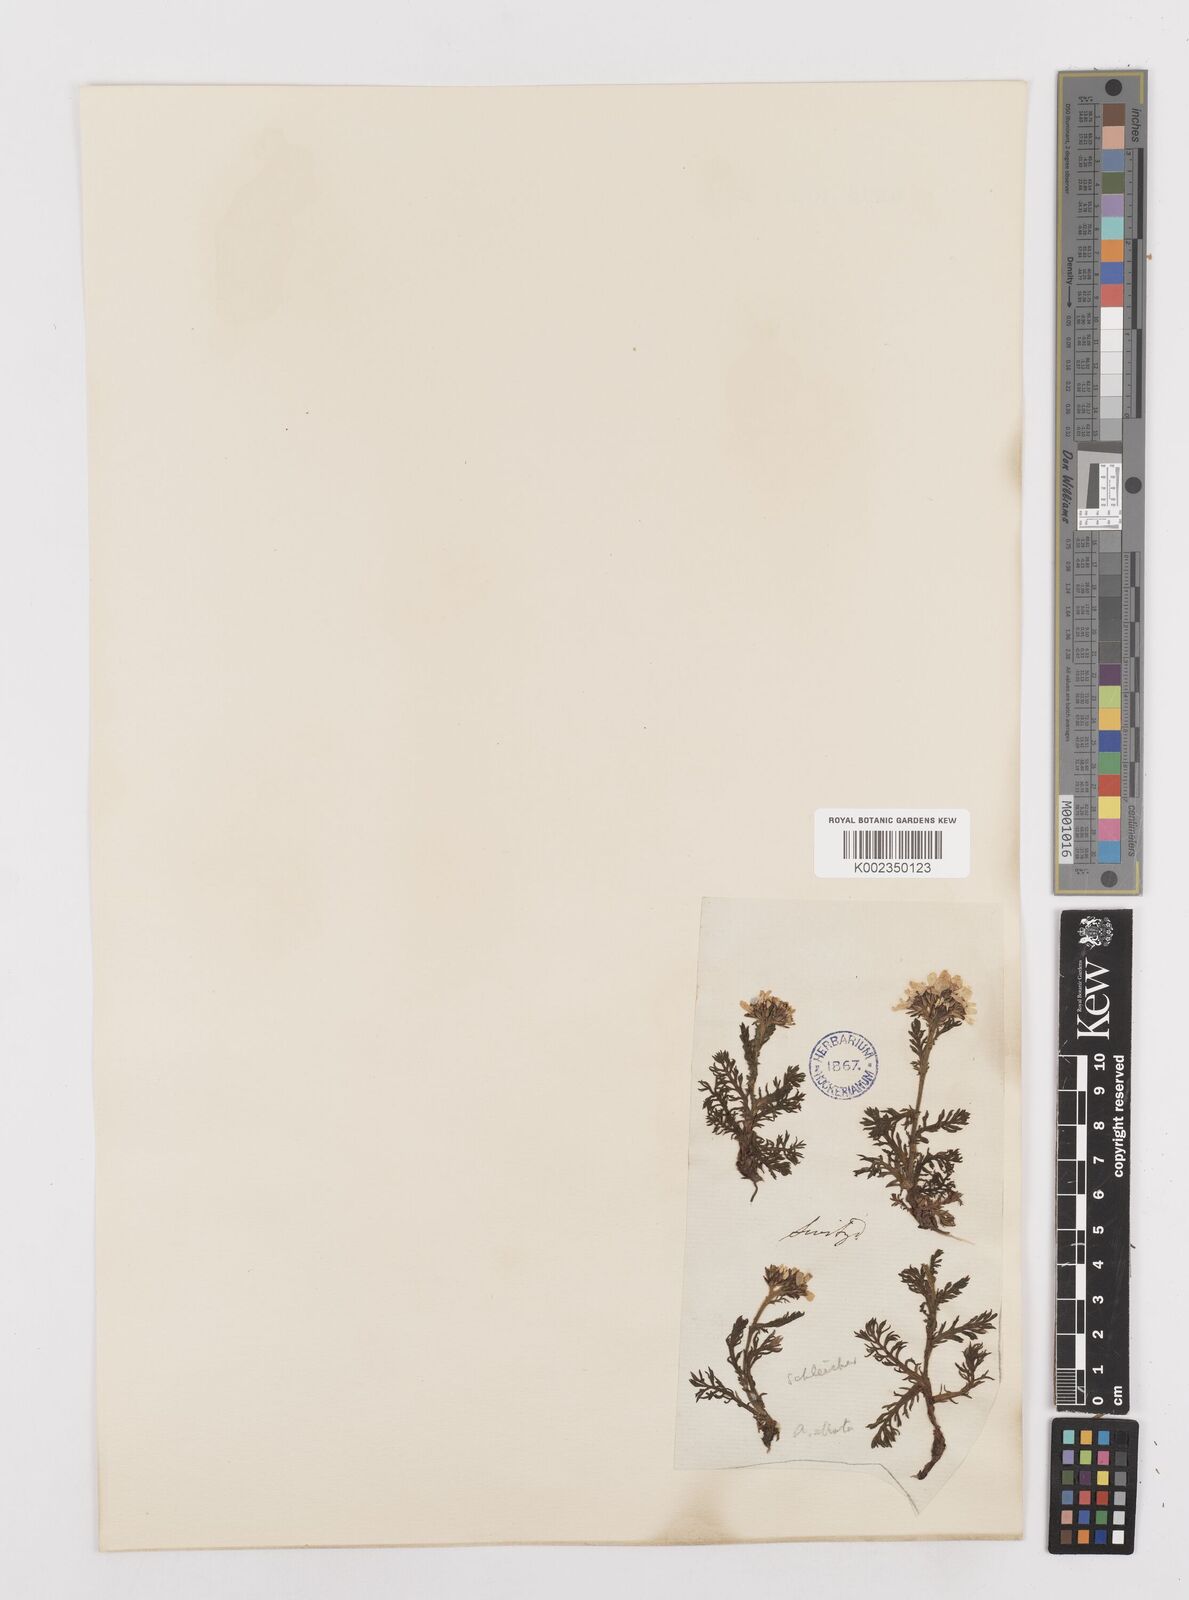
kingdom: Plantae
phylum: Tracheophyta
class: Magnoliopsida
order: Asterales
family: Asteraceae
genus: Achillea
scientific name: Achillea atrata
